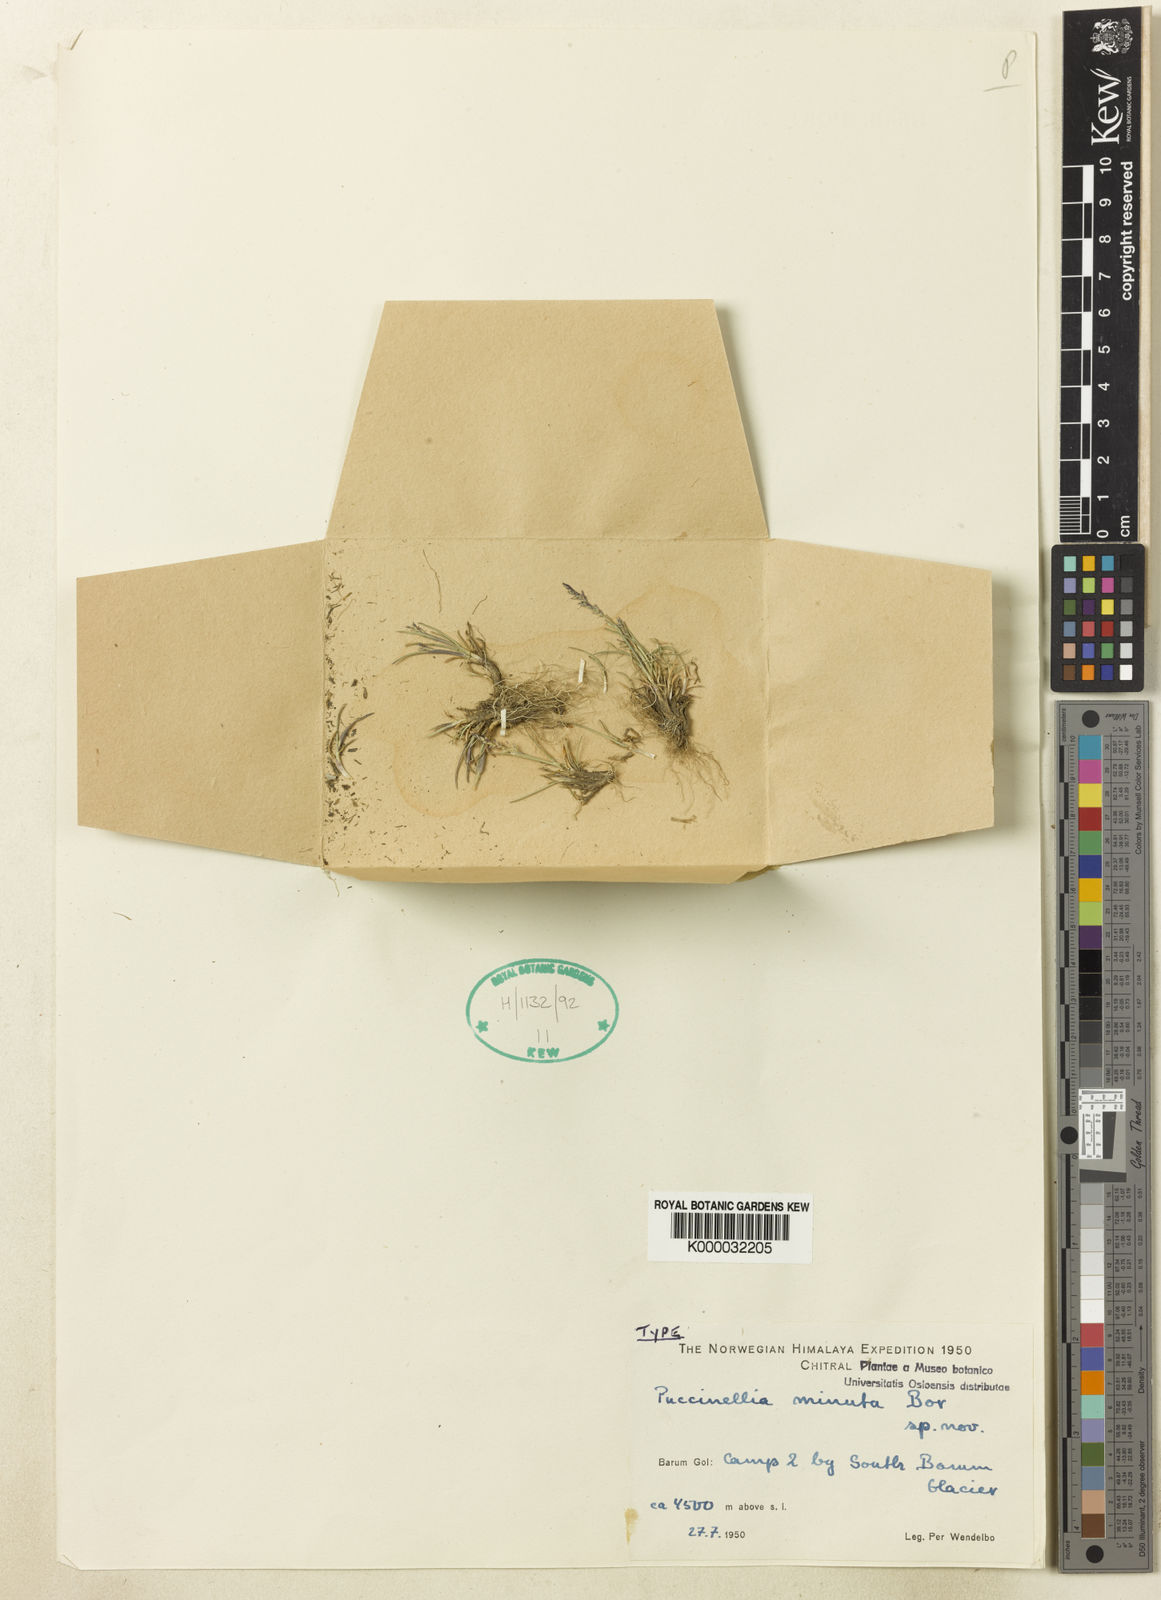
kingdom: Plantae
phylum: Tracheophyta
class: Liliopsida
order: Poales
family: Poaceae
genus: Puccinellia
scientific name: Puccinellia minuta
